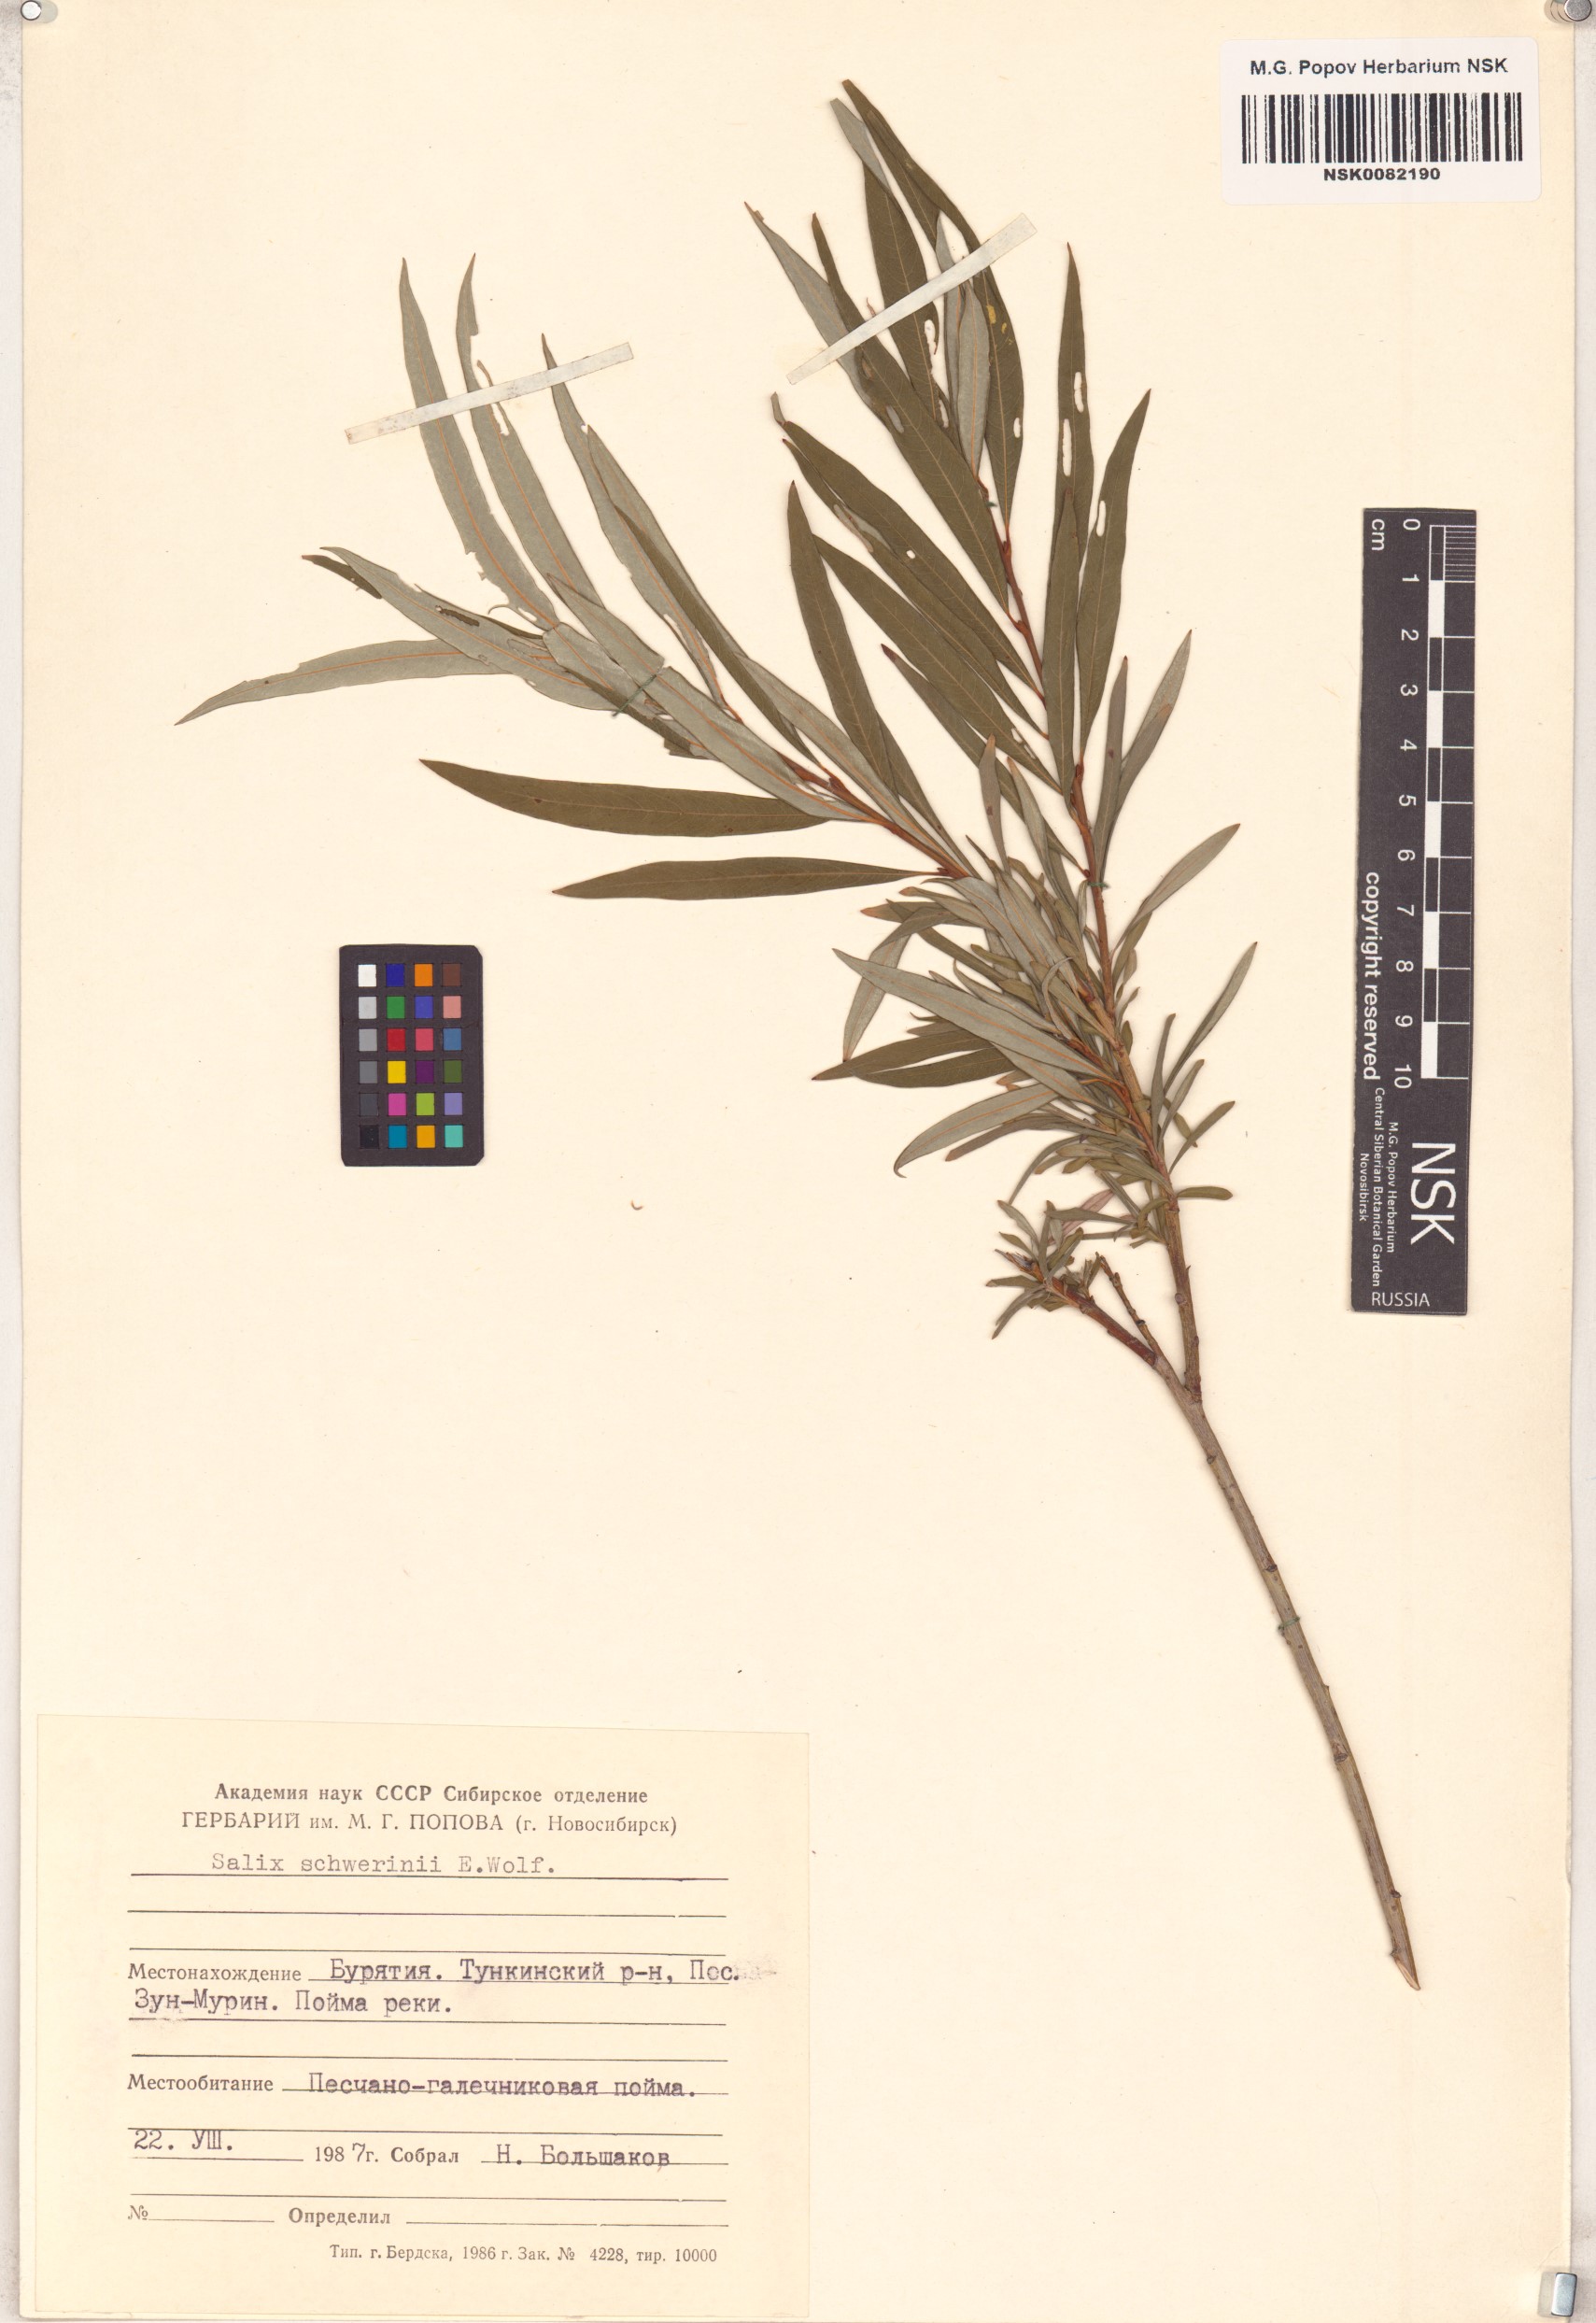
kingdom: Plantae
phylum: Tracheophyta
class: Magnoliopsida
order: Malpighiales
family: Salicaceae
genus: Salix
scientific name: Salix schwerinii
